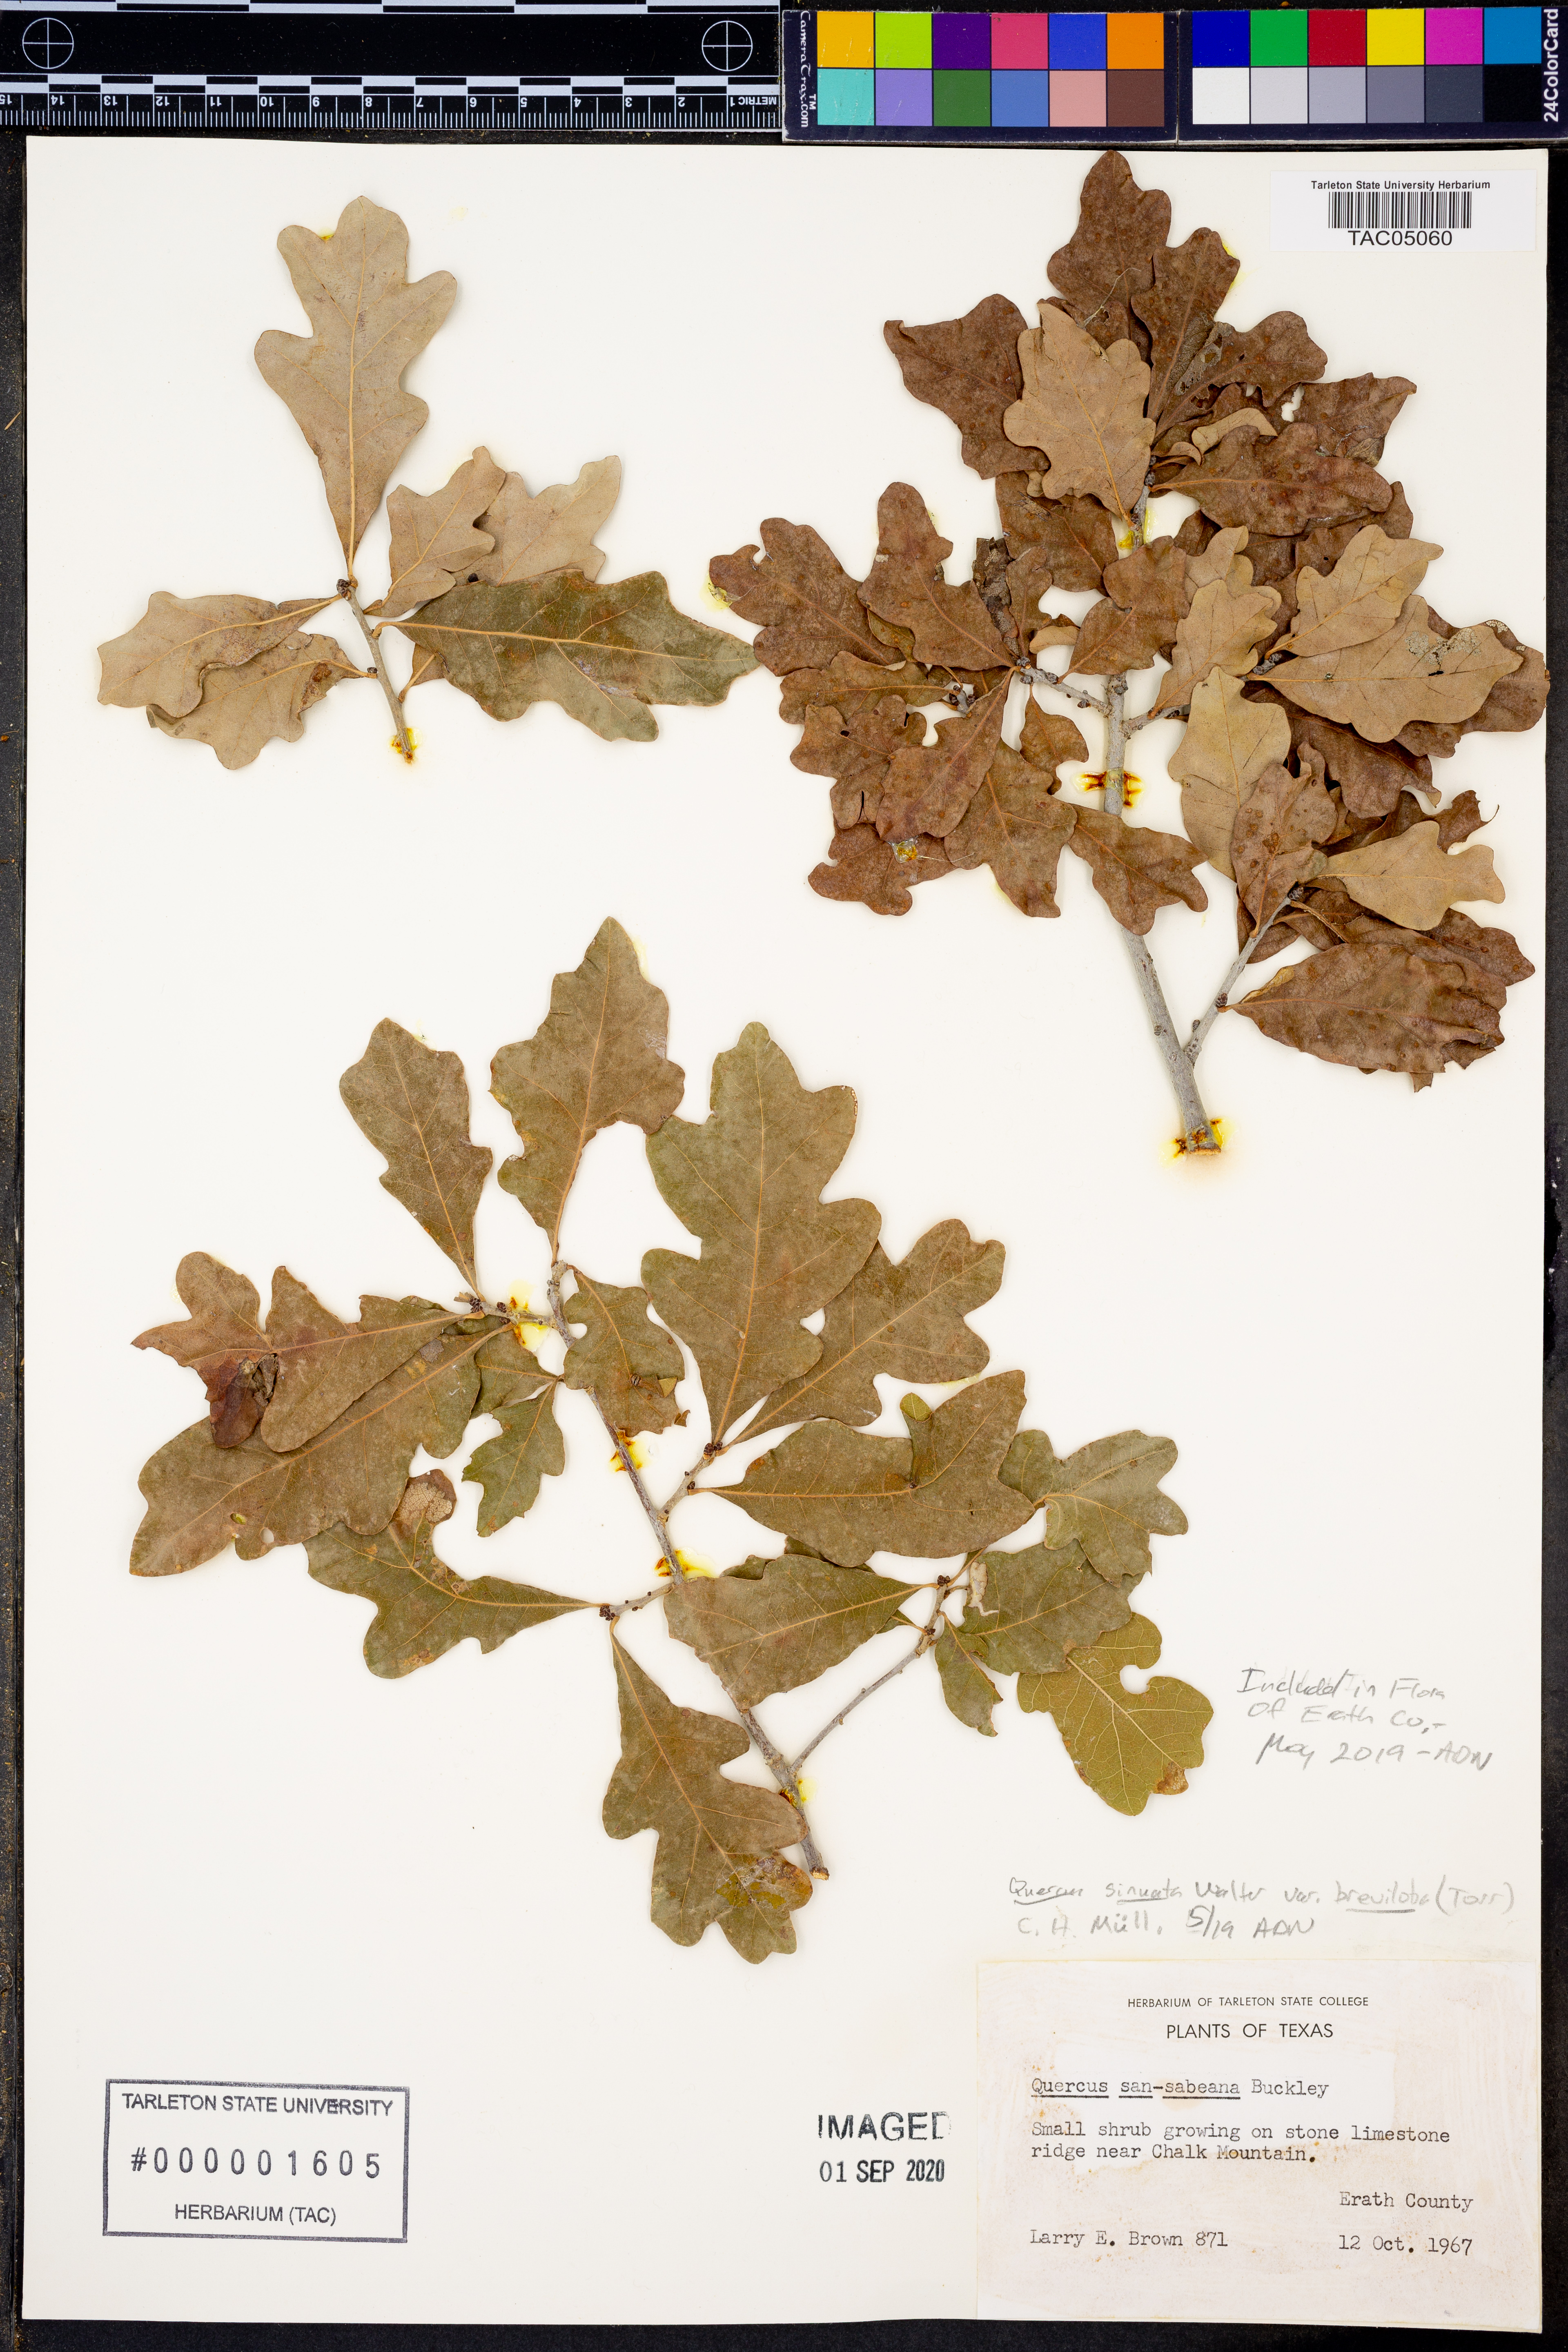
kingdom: Plantae
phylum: Tracheophyta
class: Magnoliopsida
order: Fagales
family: Fagaceae
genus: Quercus
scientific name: Quercus sinuata
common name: Durand oak
